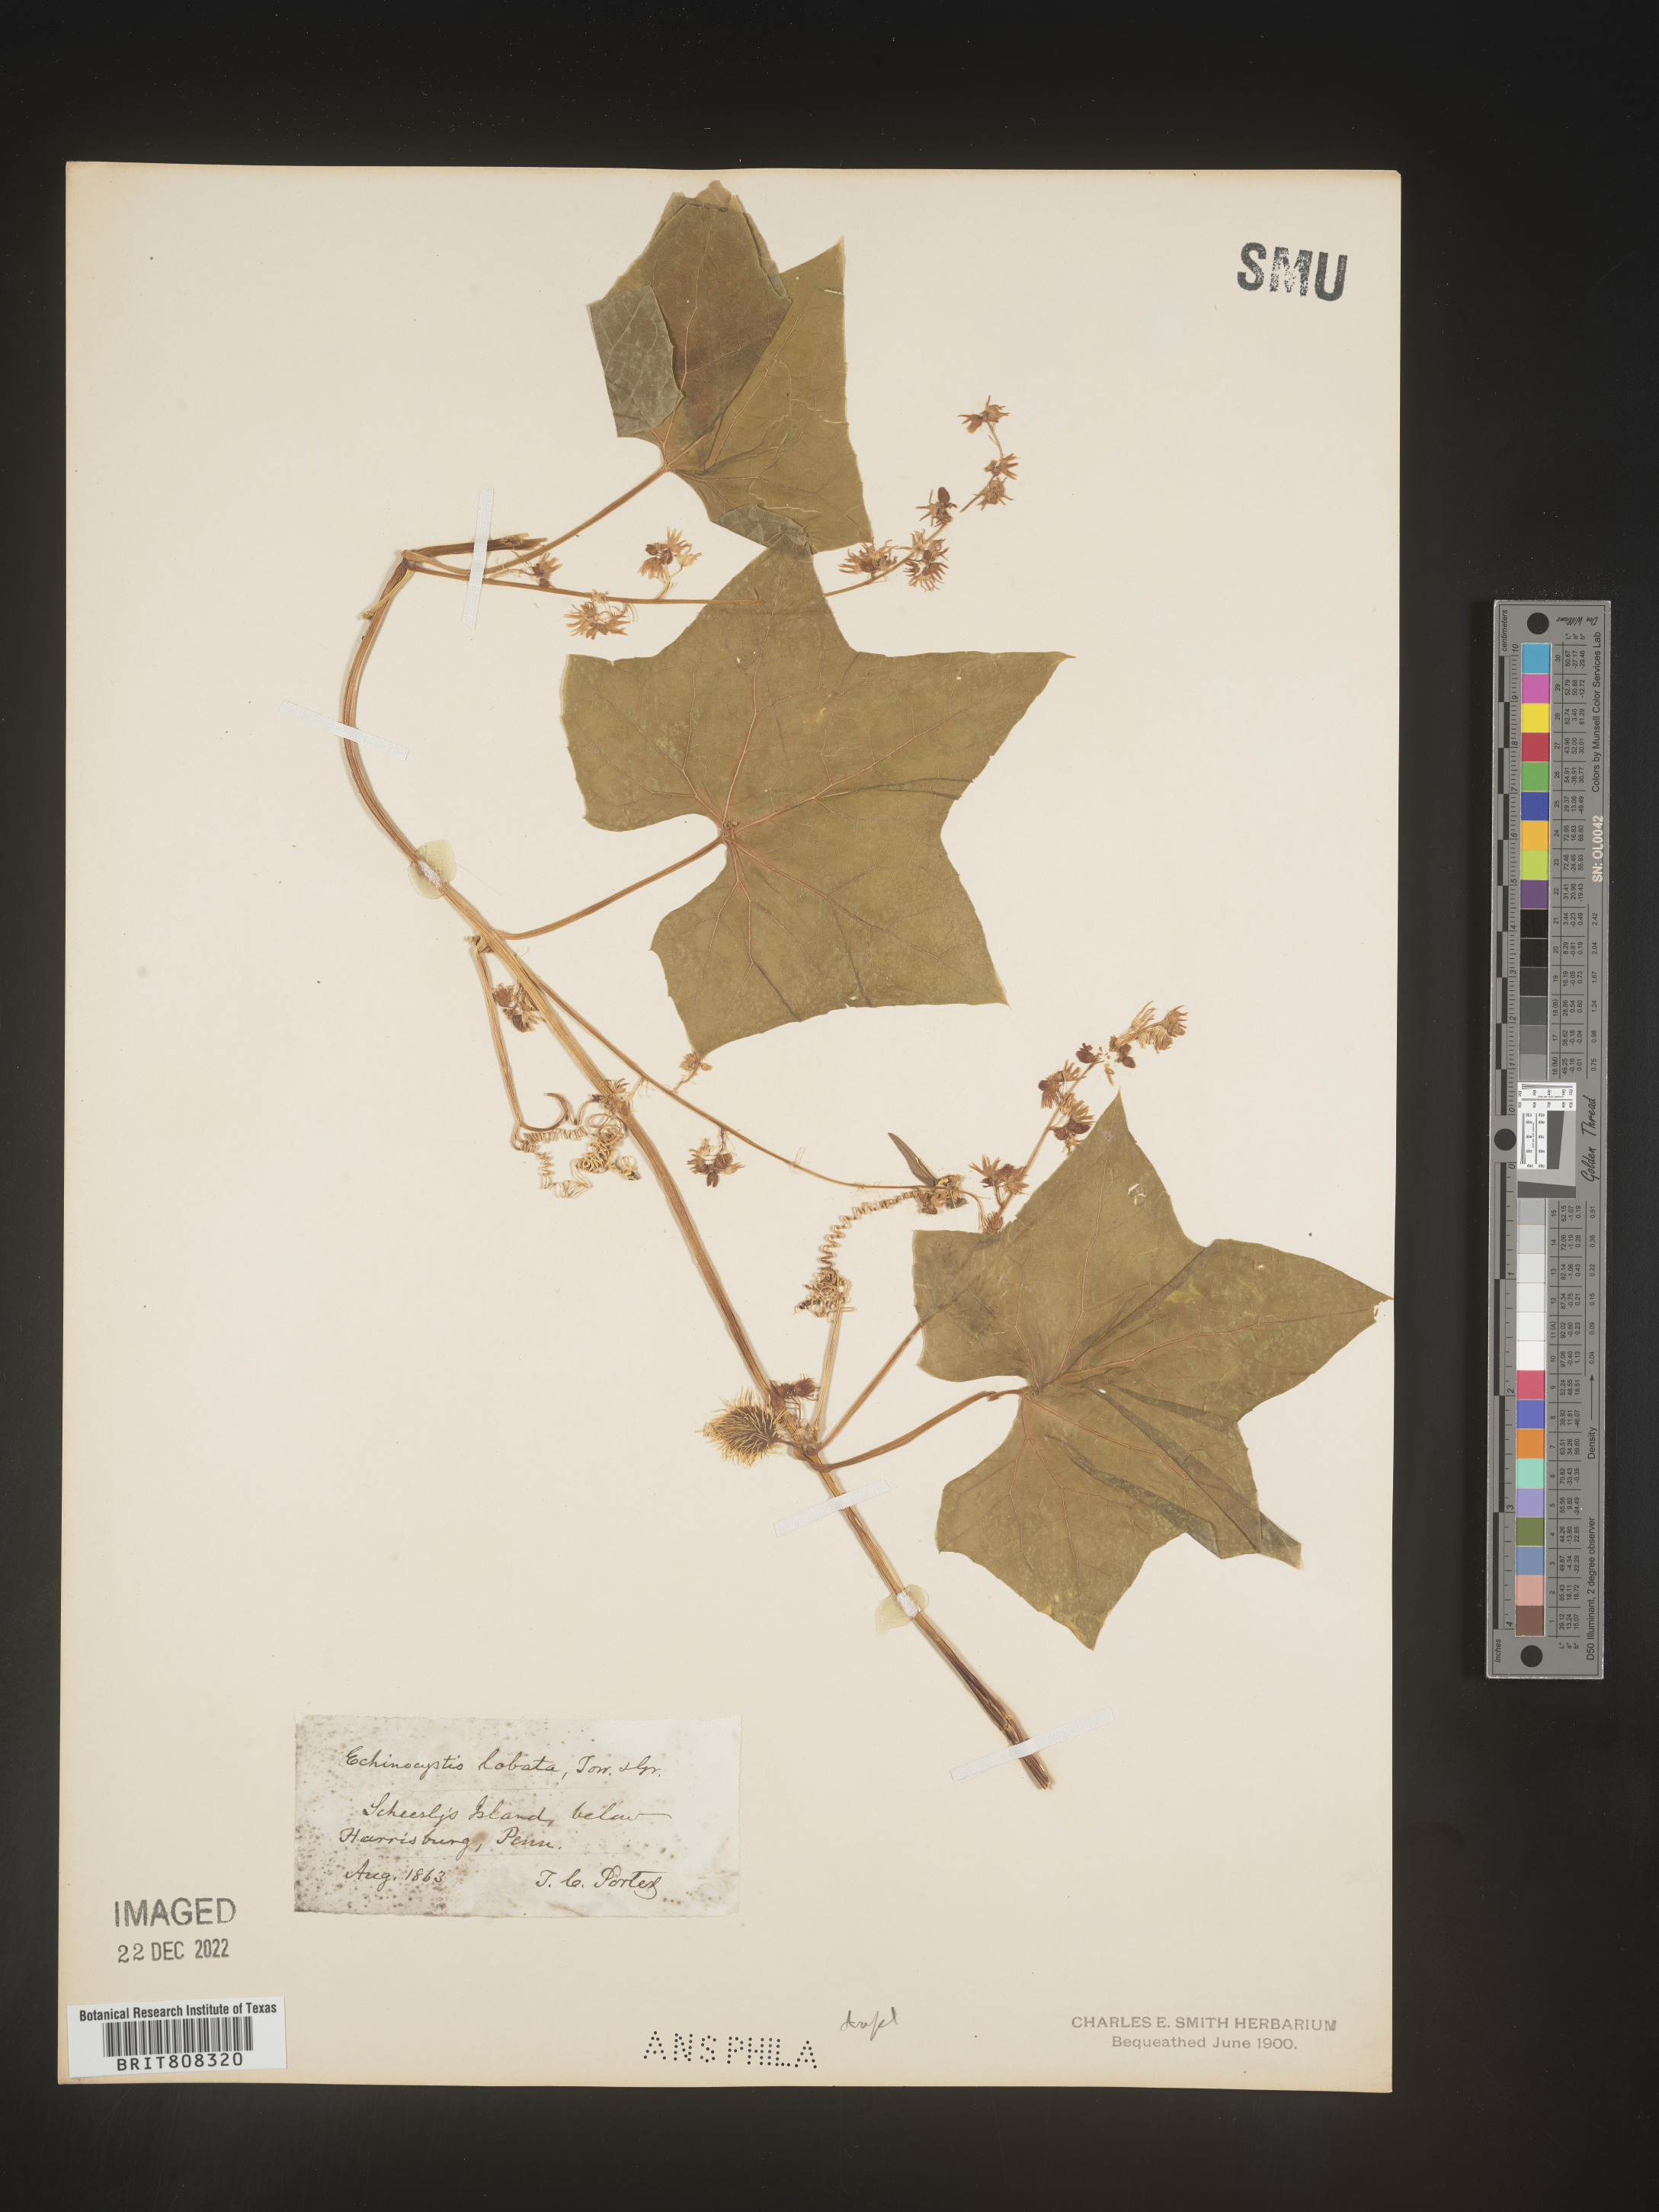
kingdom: Plantae
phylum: Tracheophyta
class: Magnoliopsida
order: Cucurbitales
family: Cucurbitaceae
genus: Echinocystis
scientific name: Echinocystis
